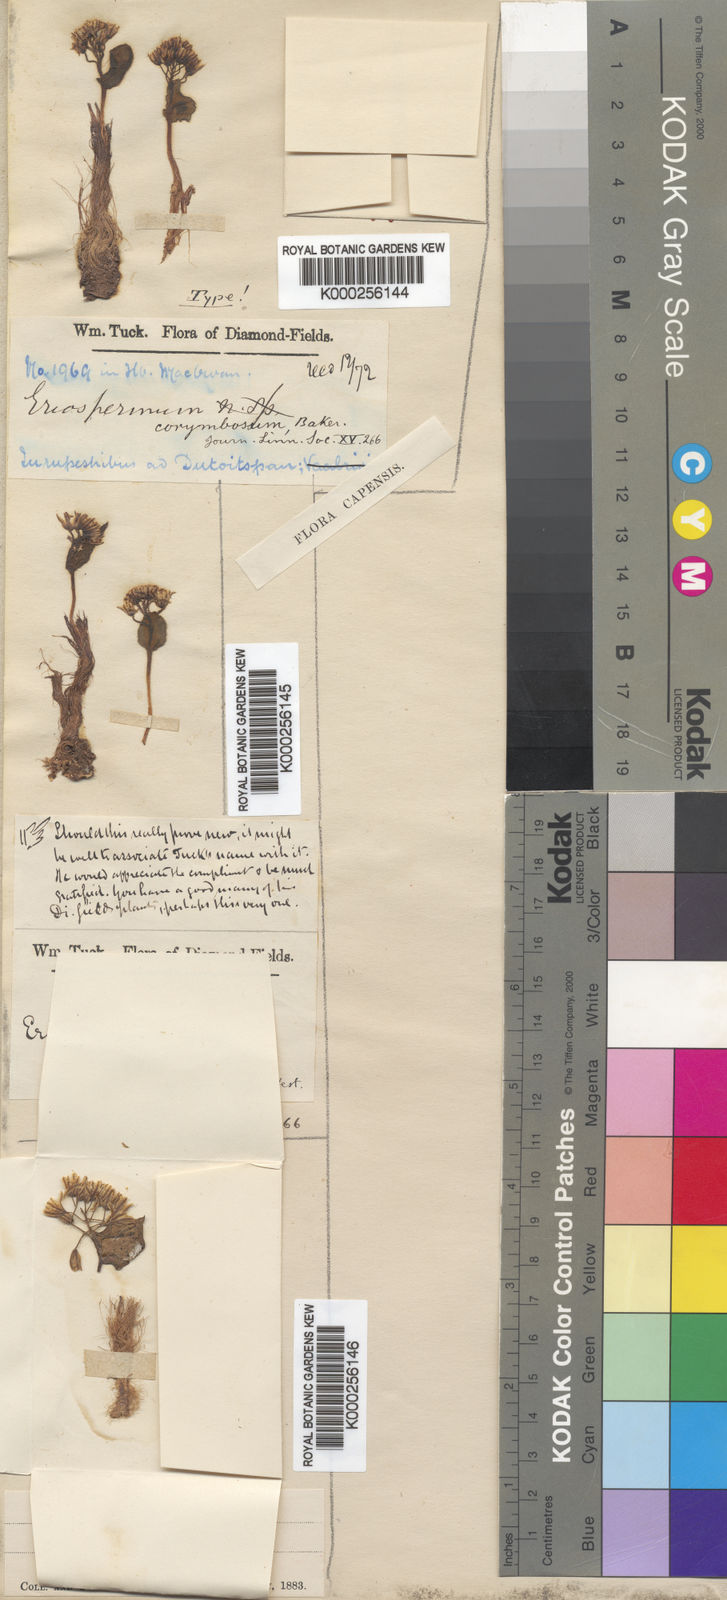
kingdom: Plantae
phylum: Tracheophyta
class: Liliopsida
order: Asparagales
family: Asparagaceae
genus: Eriospermum
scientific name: Eriospermum corymbosum
